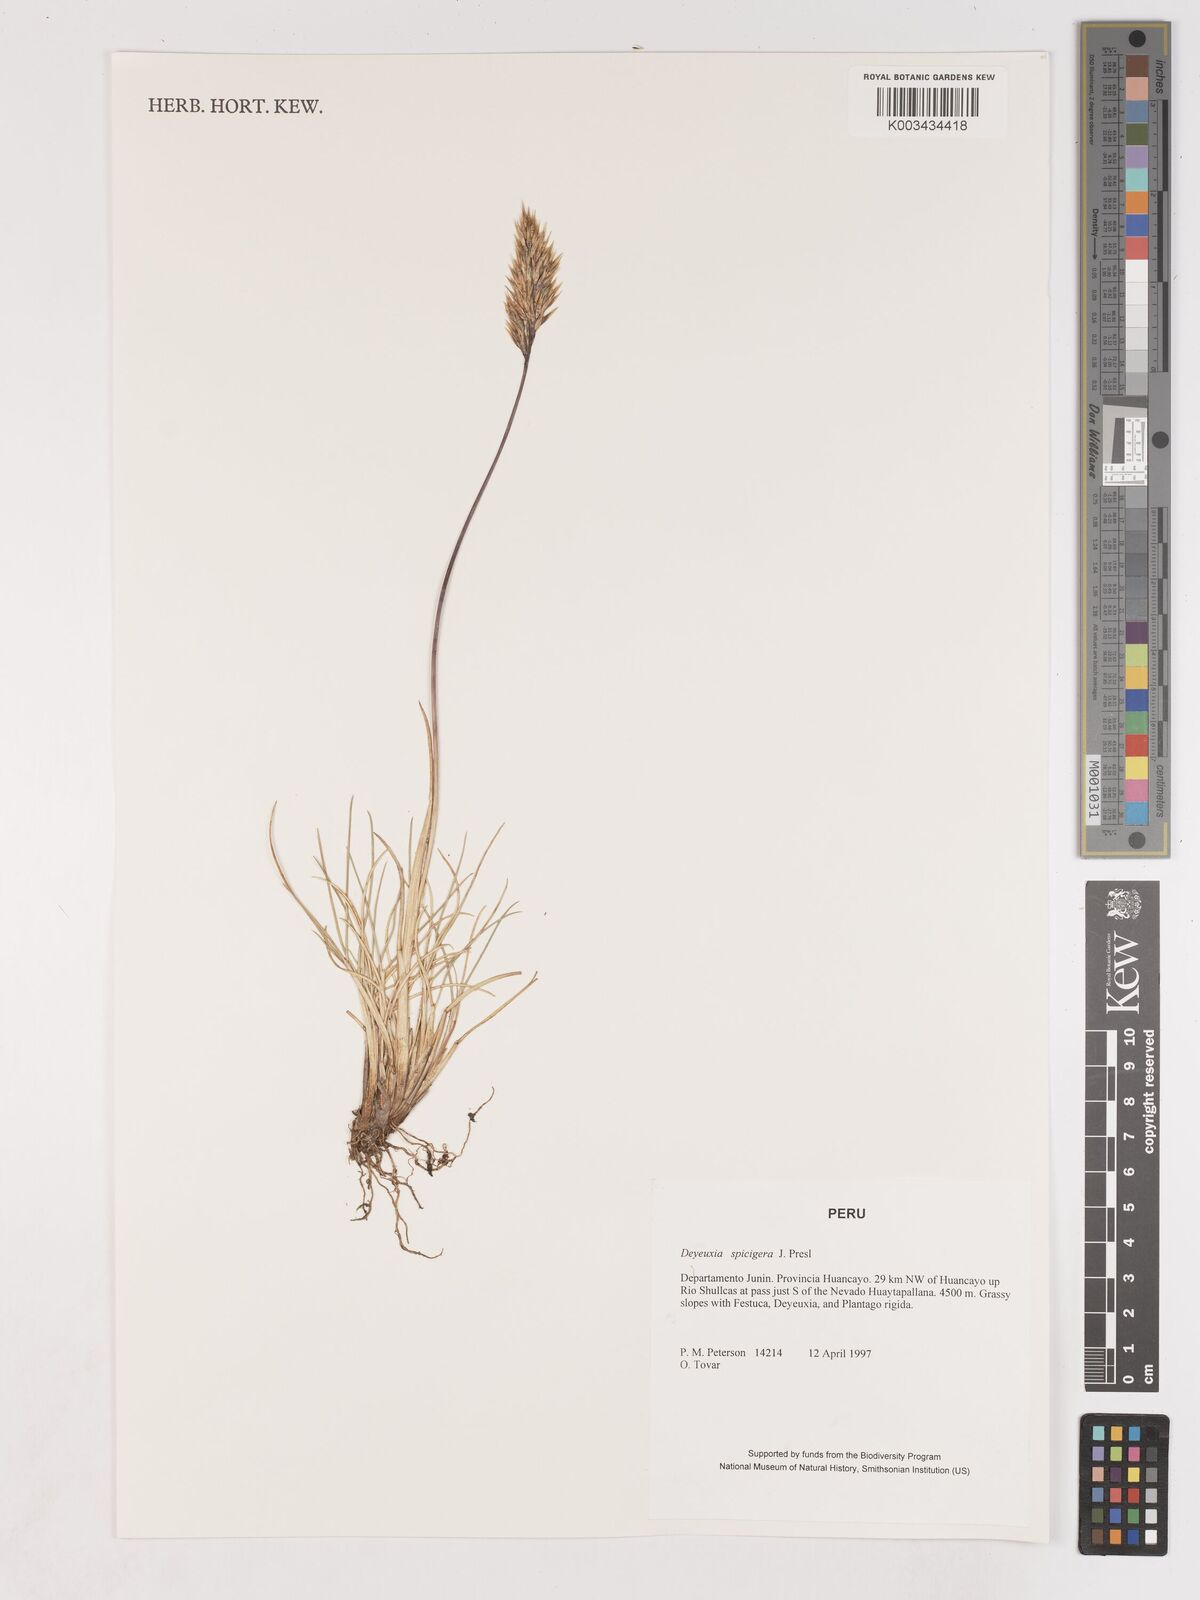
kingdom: Plantae
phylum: Tracheophyta
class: Liliopsida
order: Poales
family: Poaceae
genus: Cinnagrostis
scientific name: Cinnagrostis spicigera
